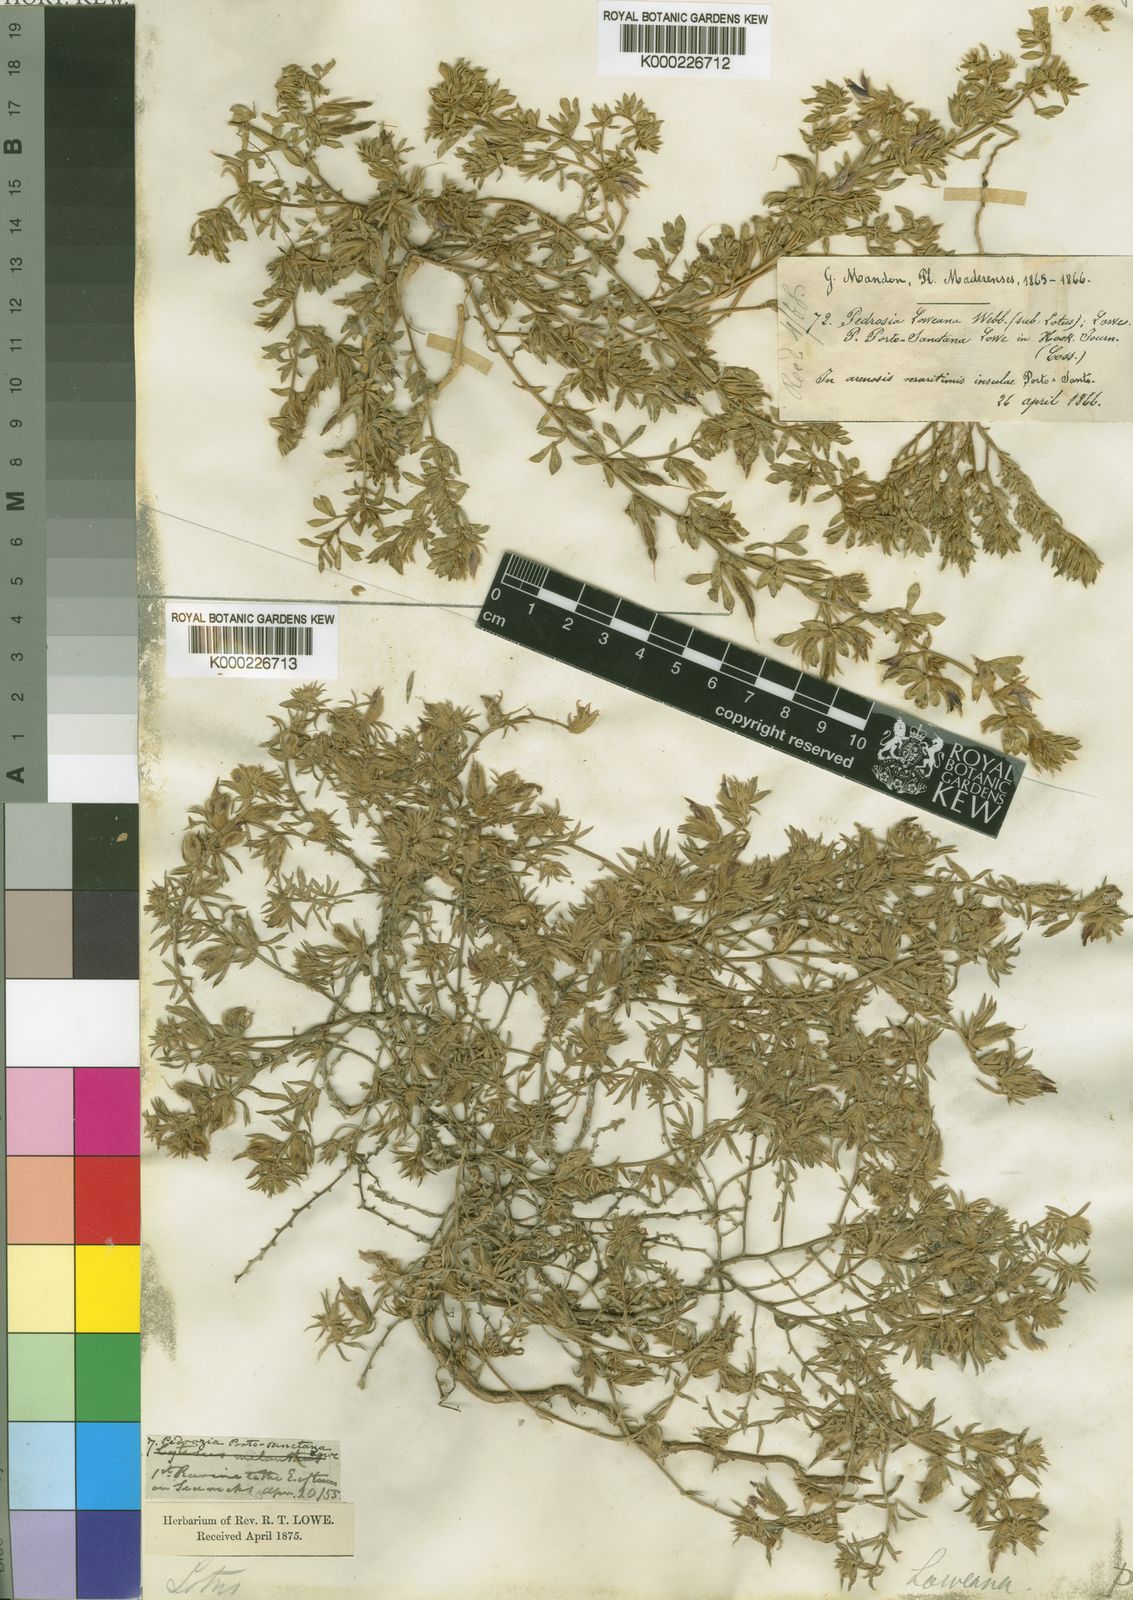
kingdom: Plantae
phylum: Tracheophyta
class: Magnoliopsida
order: Fabales
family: Fabaceae
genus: Lotus
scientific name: Lotus loweanus
